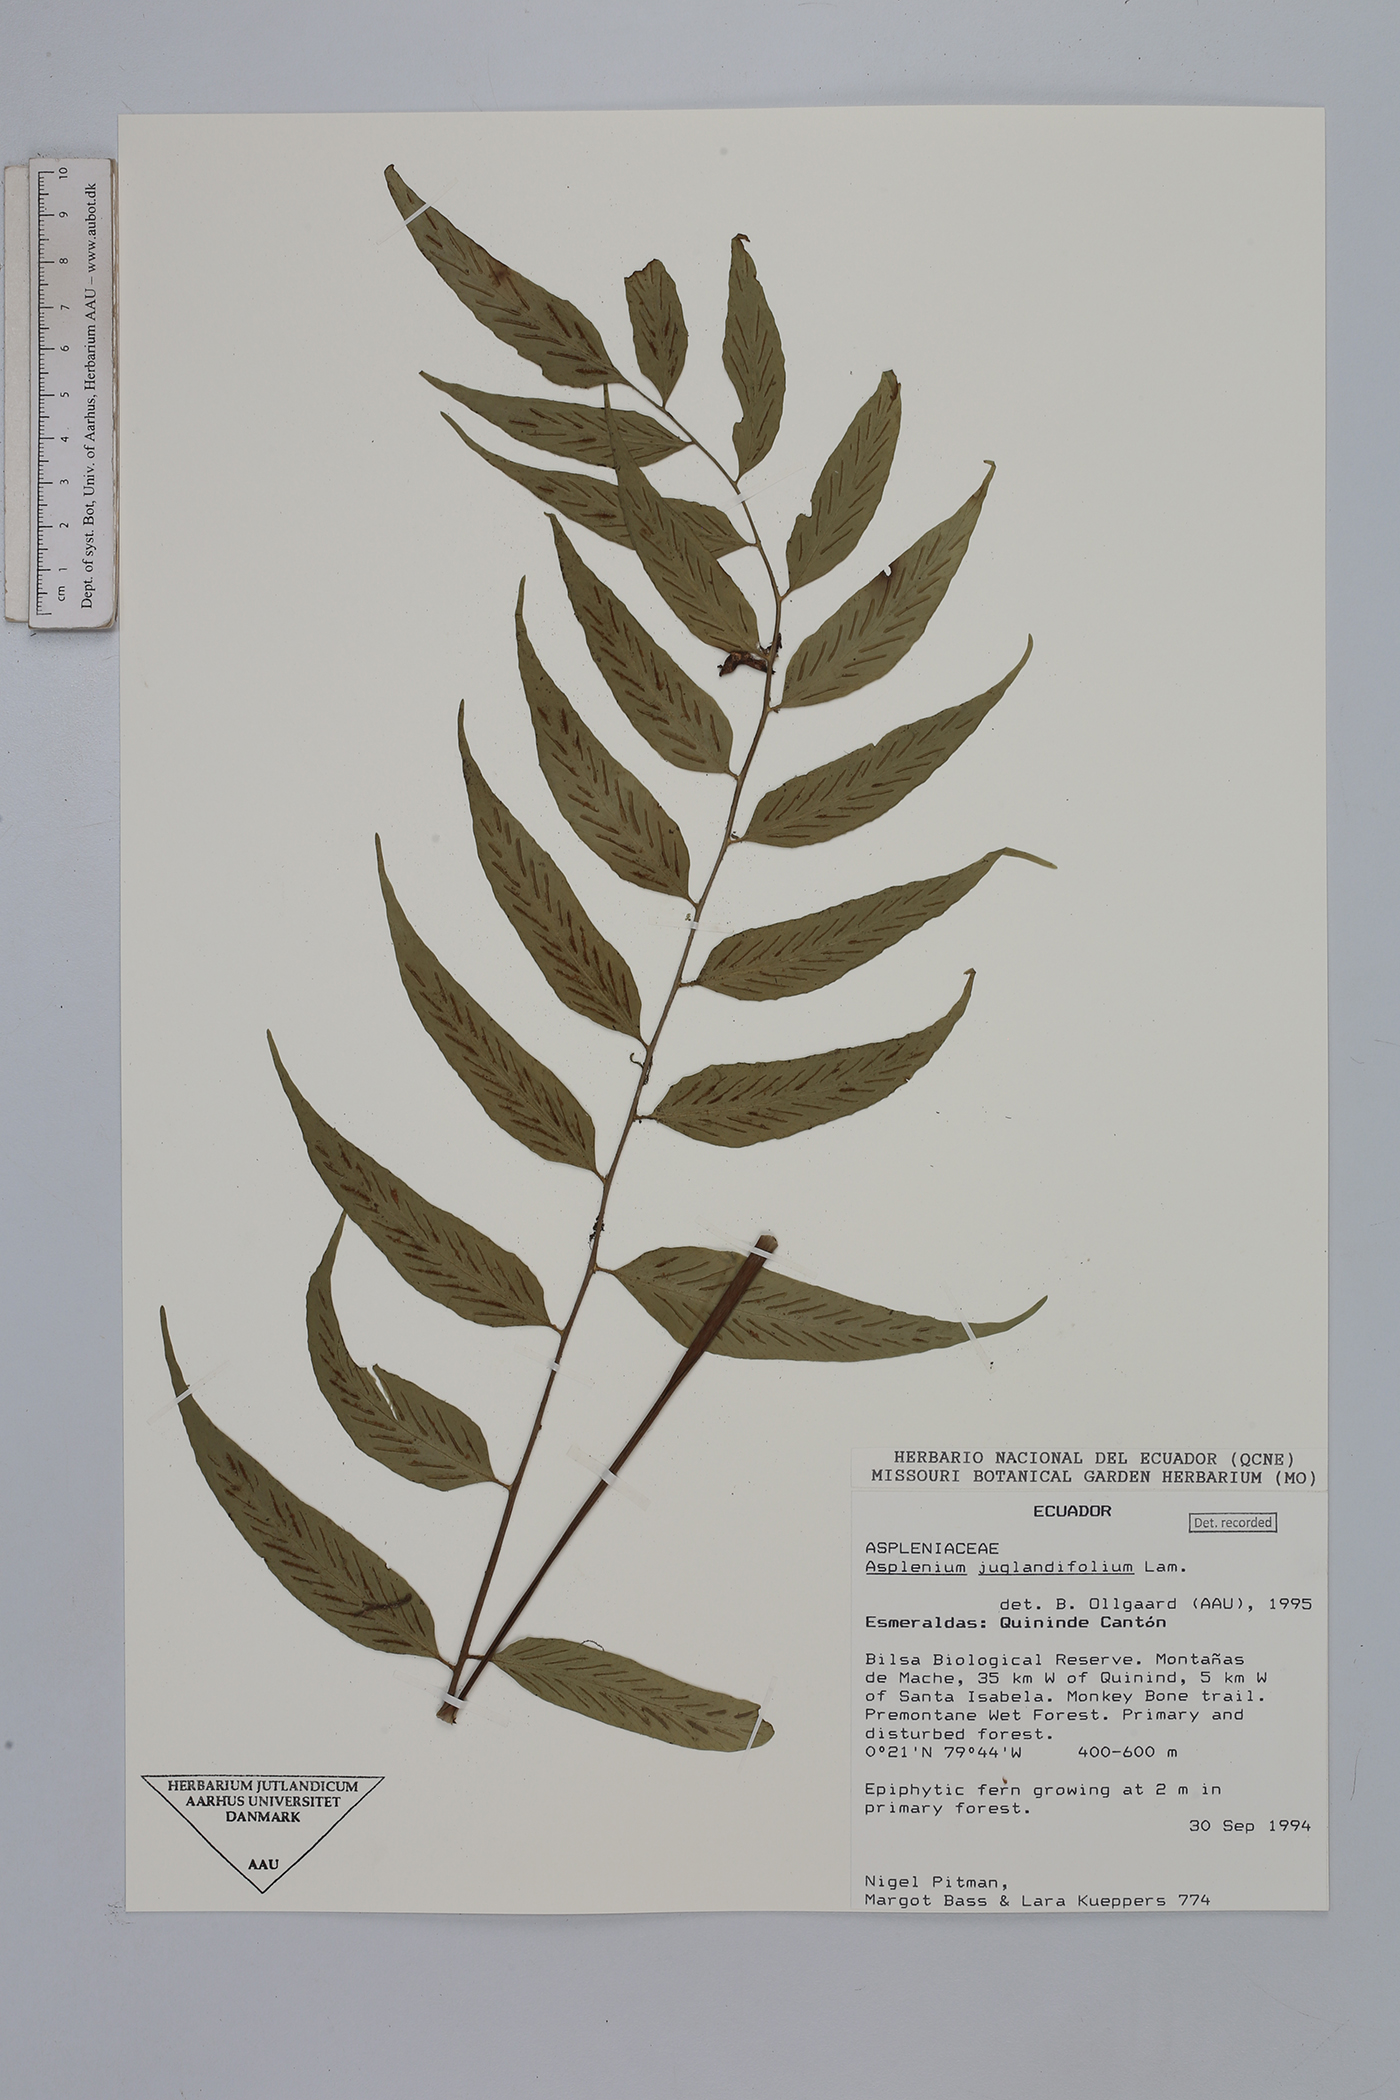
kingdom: Plantae
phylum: Tracheophyta
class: Polypodiopsida
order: Polypodiales
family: Aspleniaceae
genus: Asplenium
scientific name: Asplenium juglandifolium
